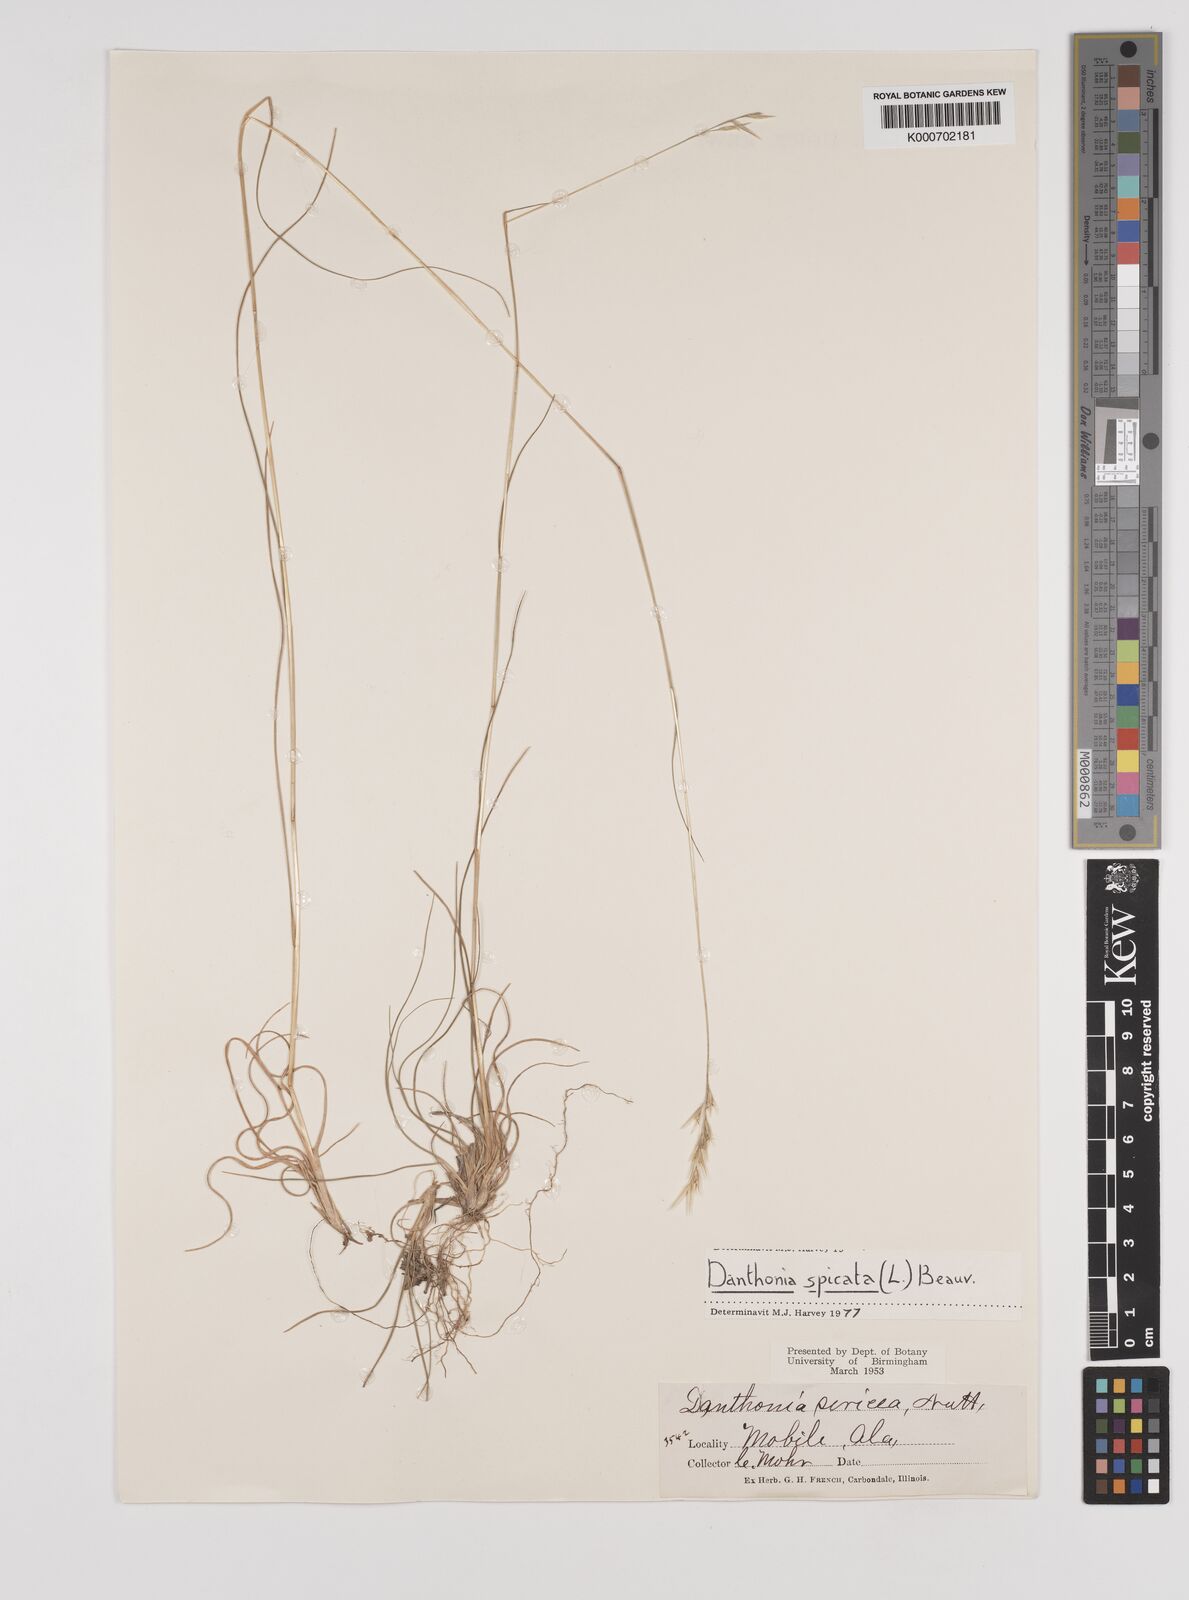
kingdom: Plantae
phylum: Tracheophyta
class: Liliopsida
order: Poales
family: Poaceae
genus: Danthonia
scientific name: Danthonia spicata
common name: Common wild oatgrass
